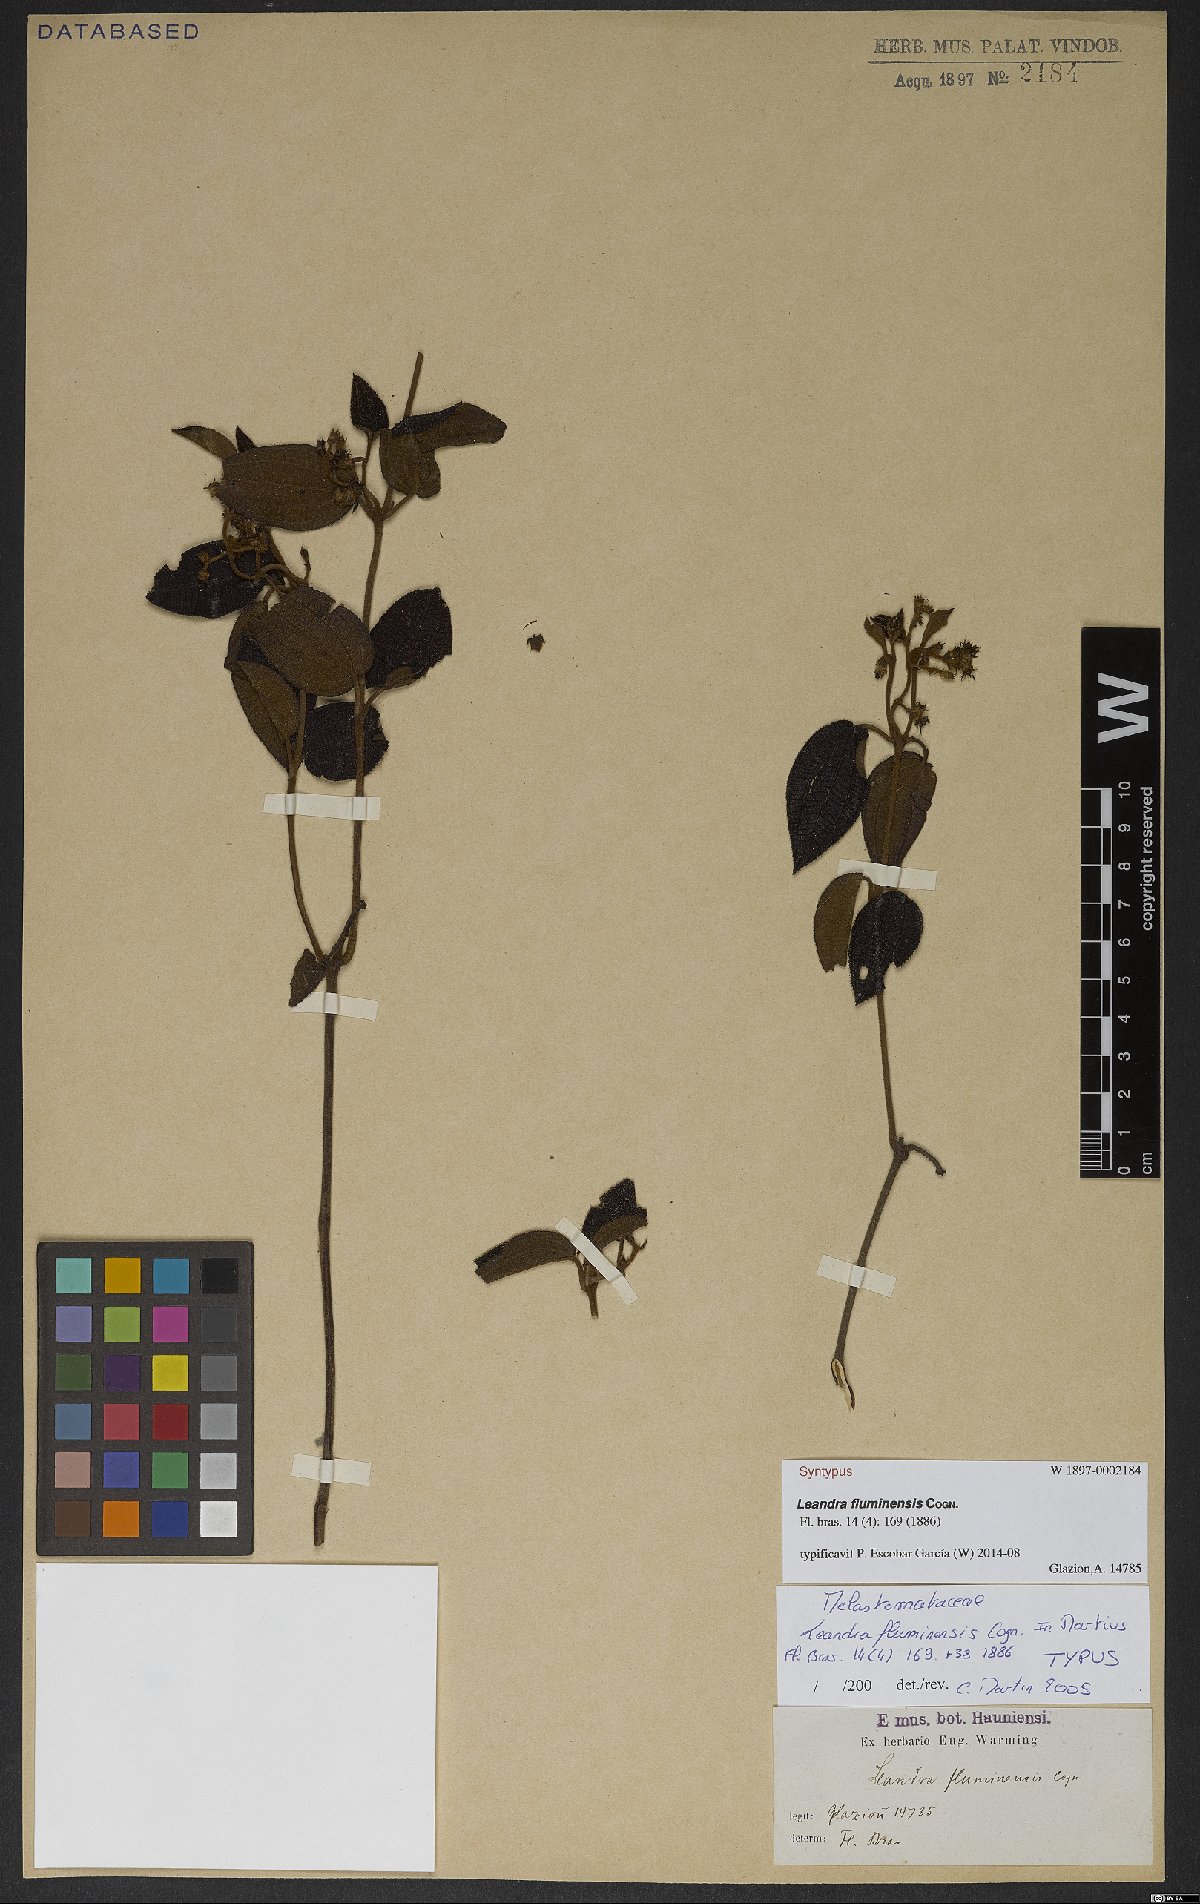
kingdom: Plantae
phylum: Tracheophyta
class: Magnoliopsida
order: Myrtales
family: Melastomataceae
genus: Miconia
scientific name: Miconia leafluminensis
